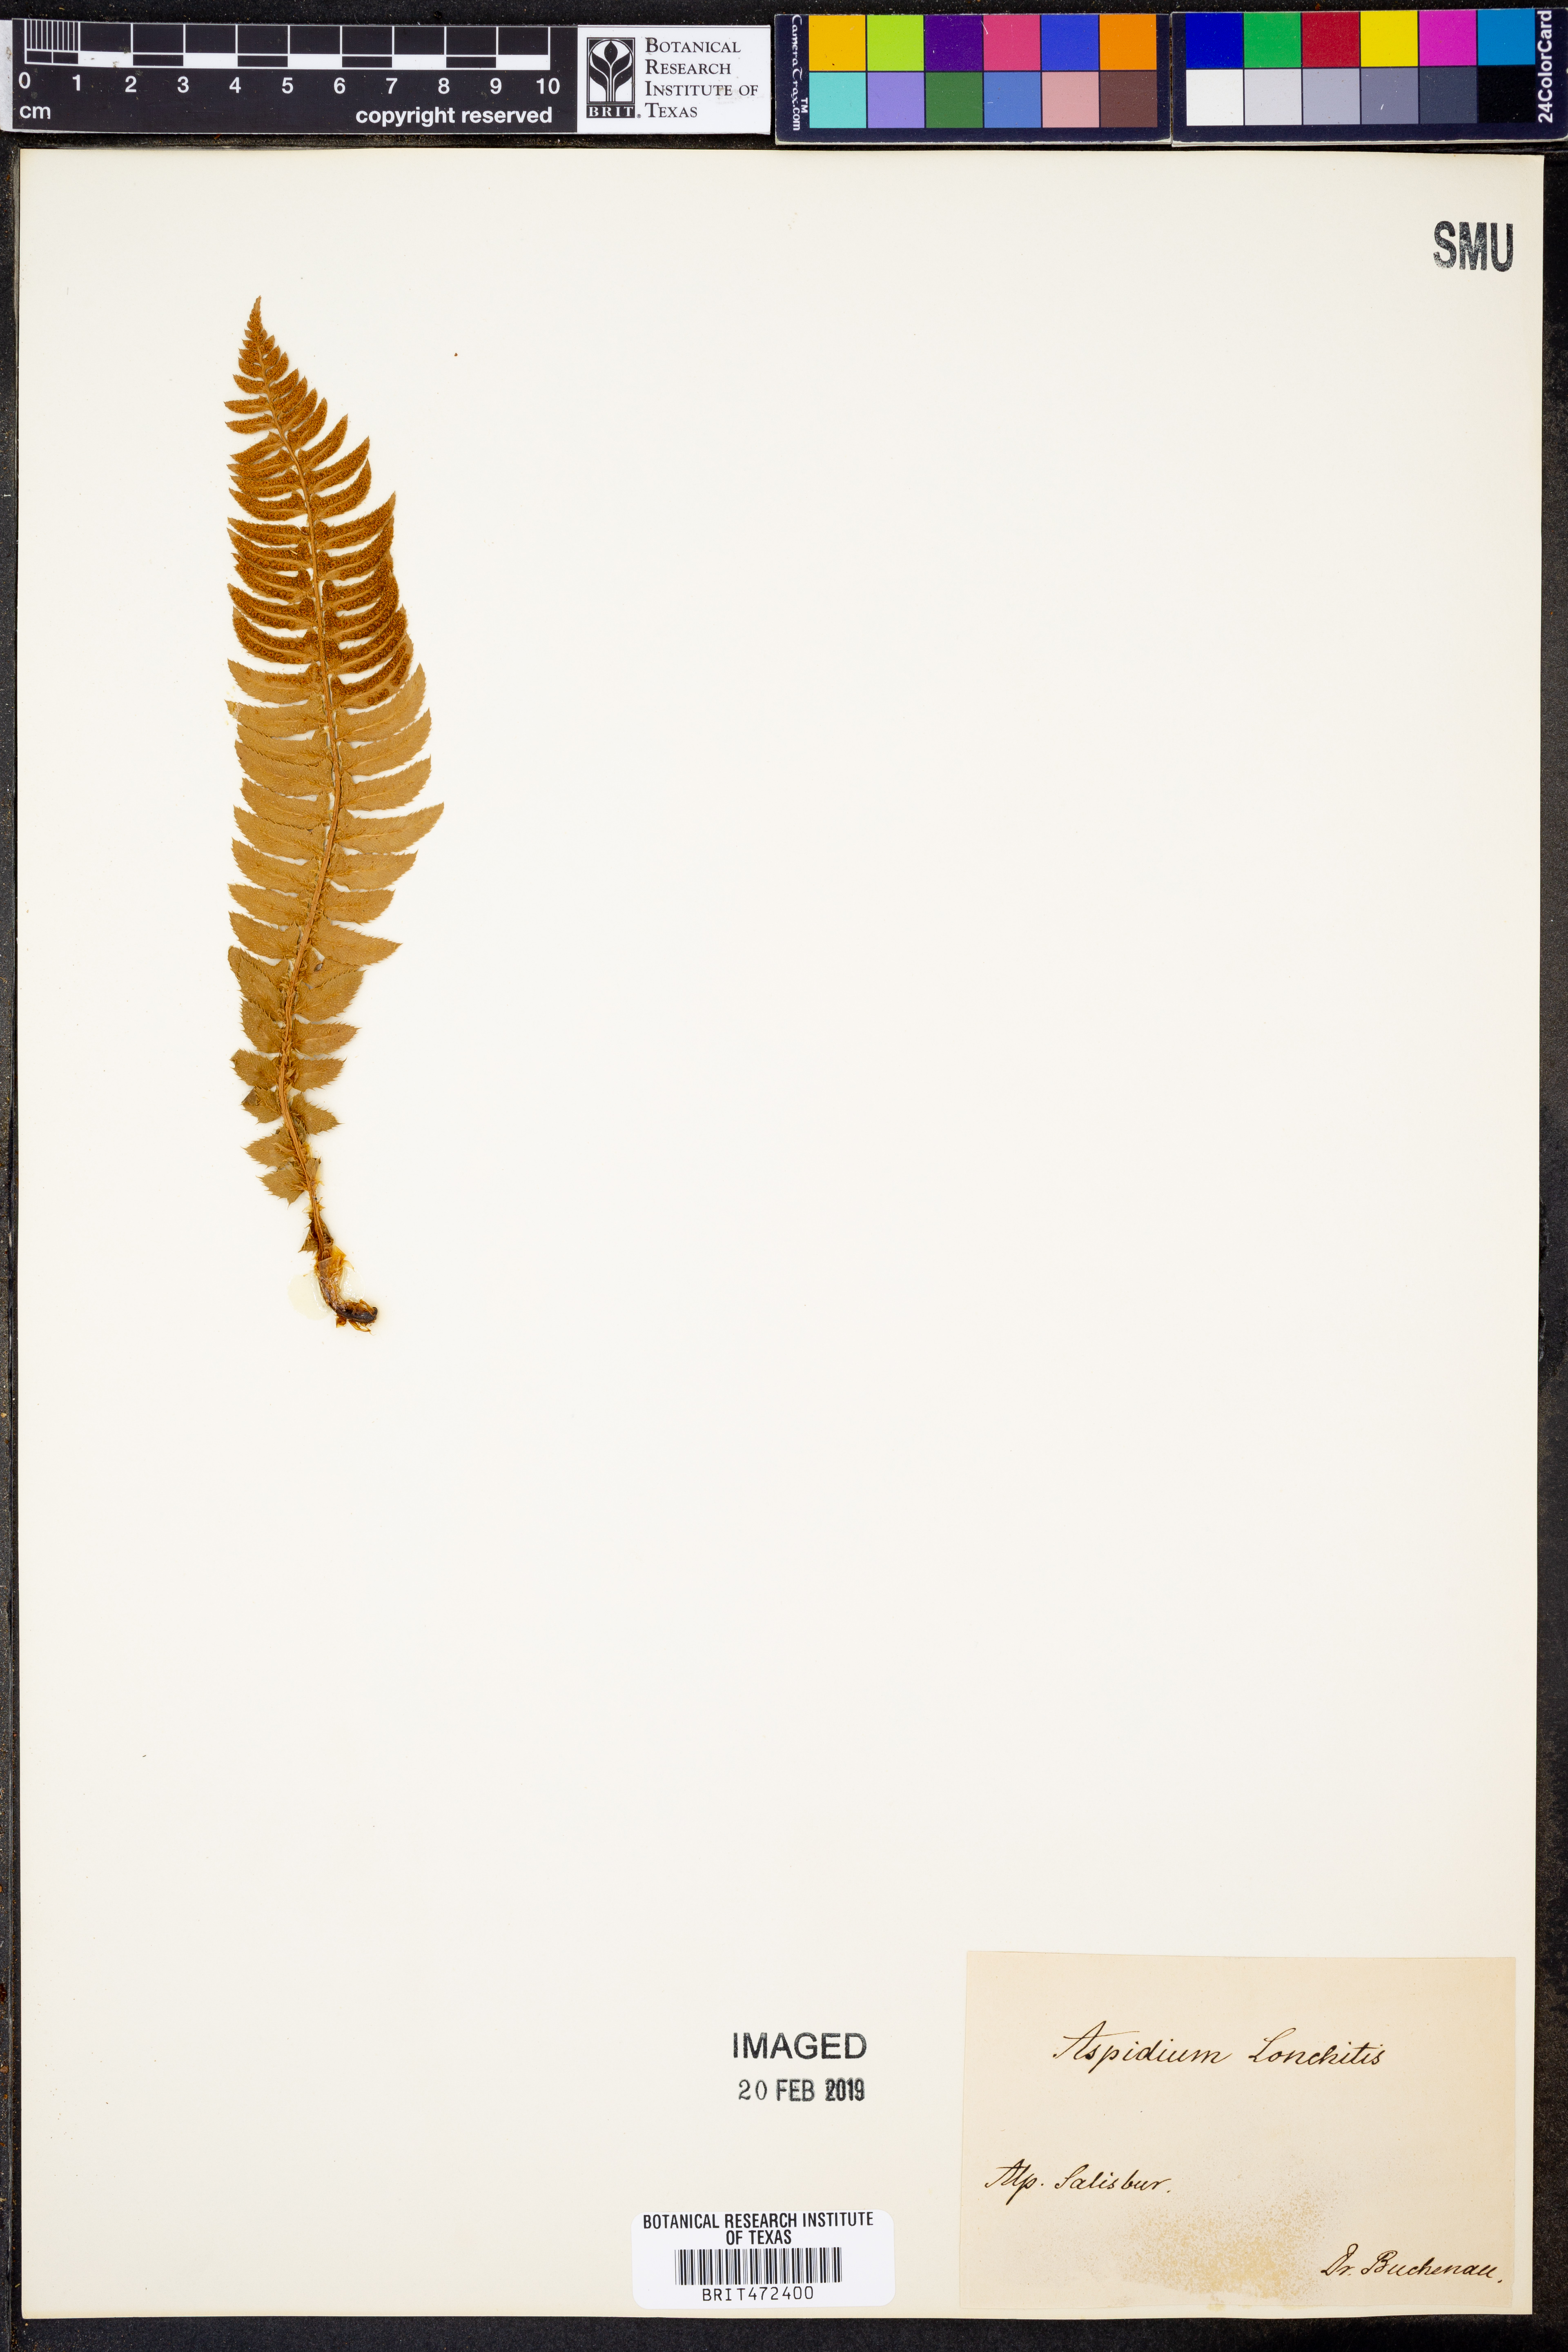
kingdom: Plantae
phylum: Tracheophyta
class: Polypodiopsida
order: Polypodiales
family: Dryopteridaceae
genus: Polystichum
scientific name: Polystichum lonchitis
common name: Holly fern
